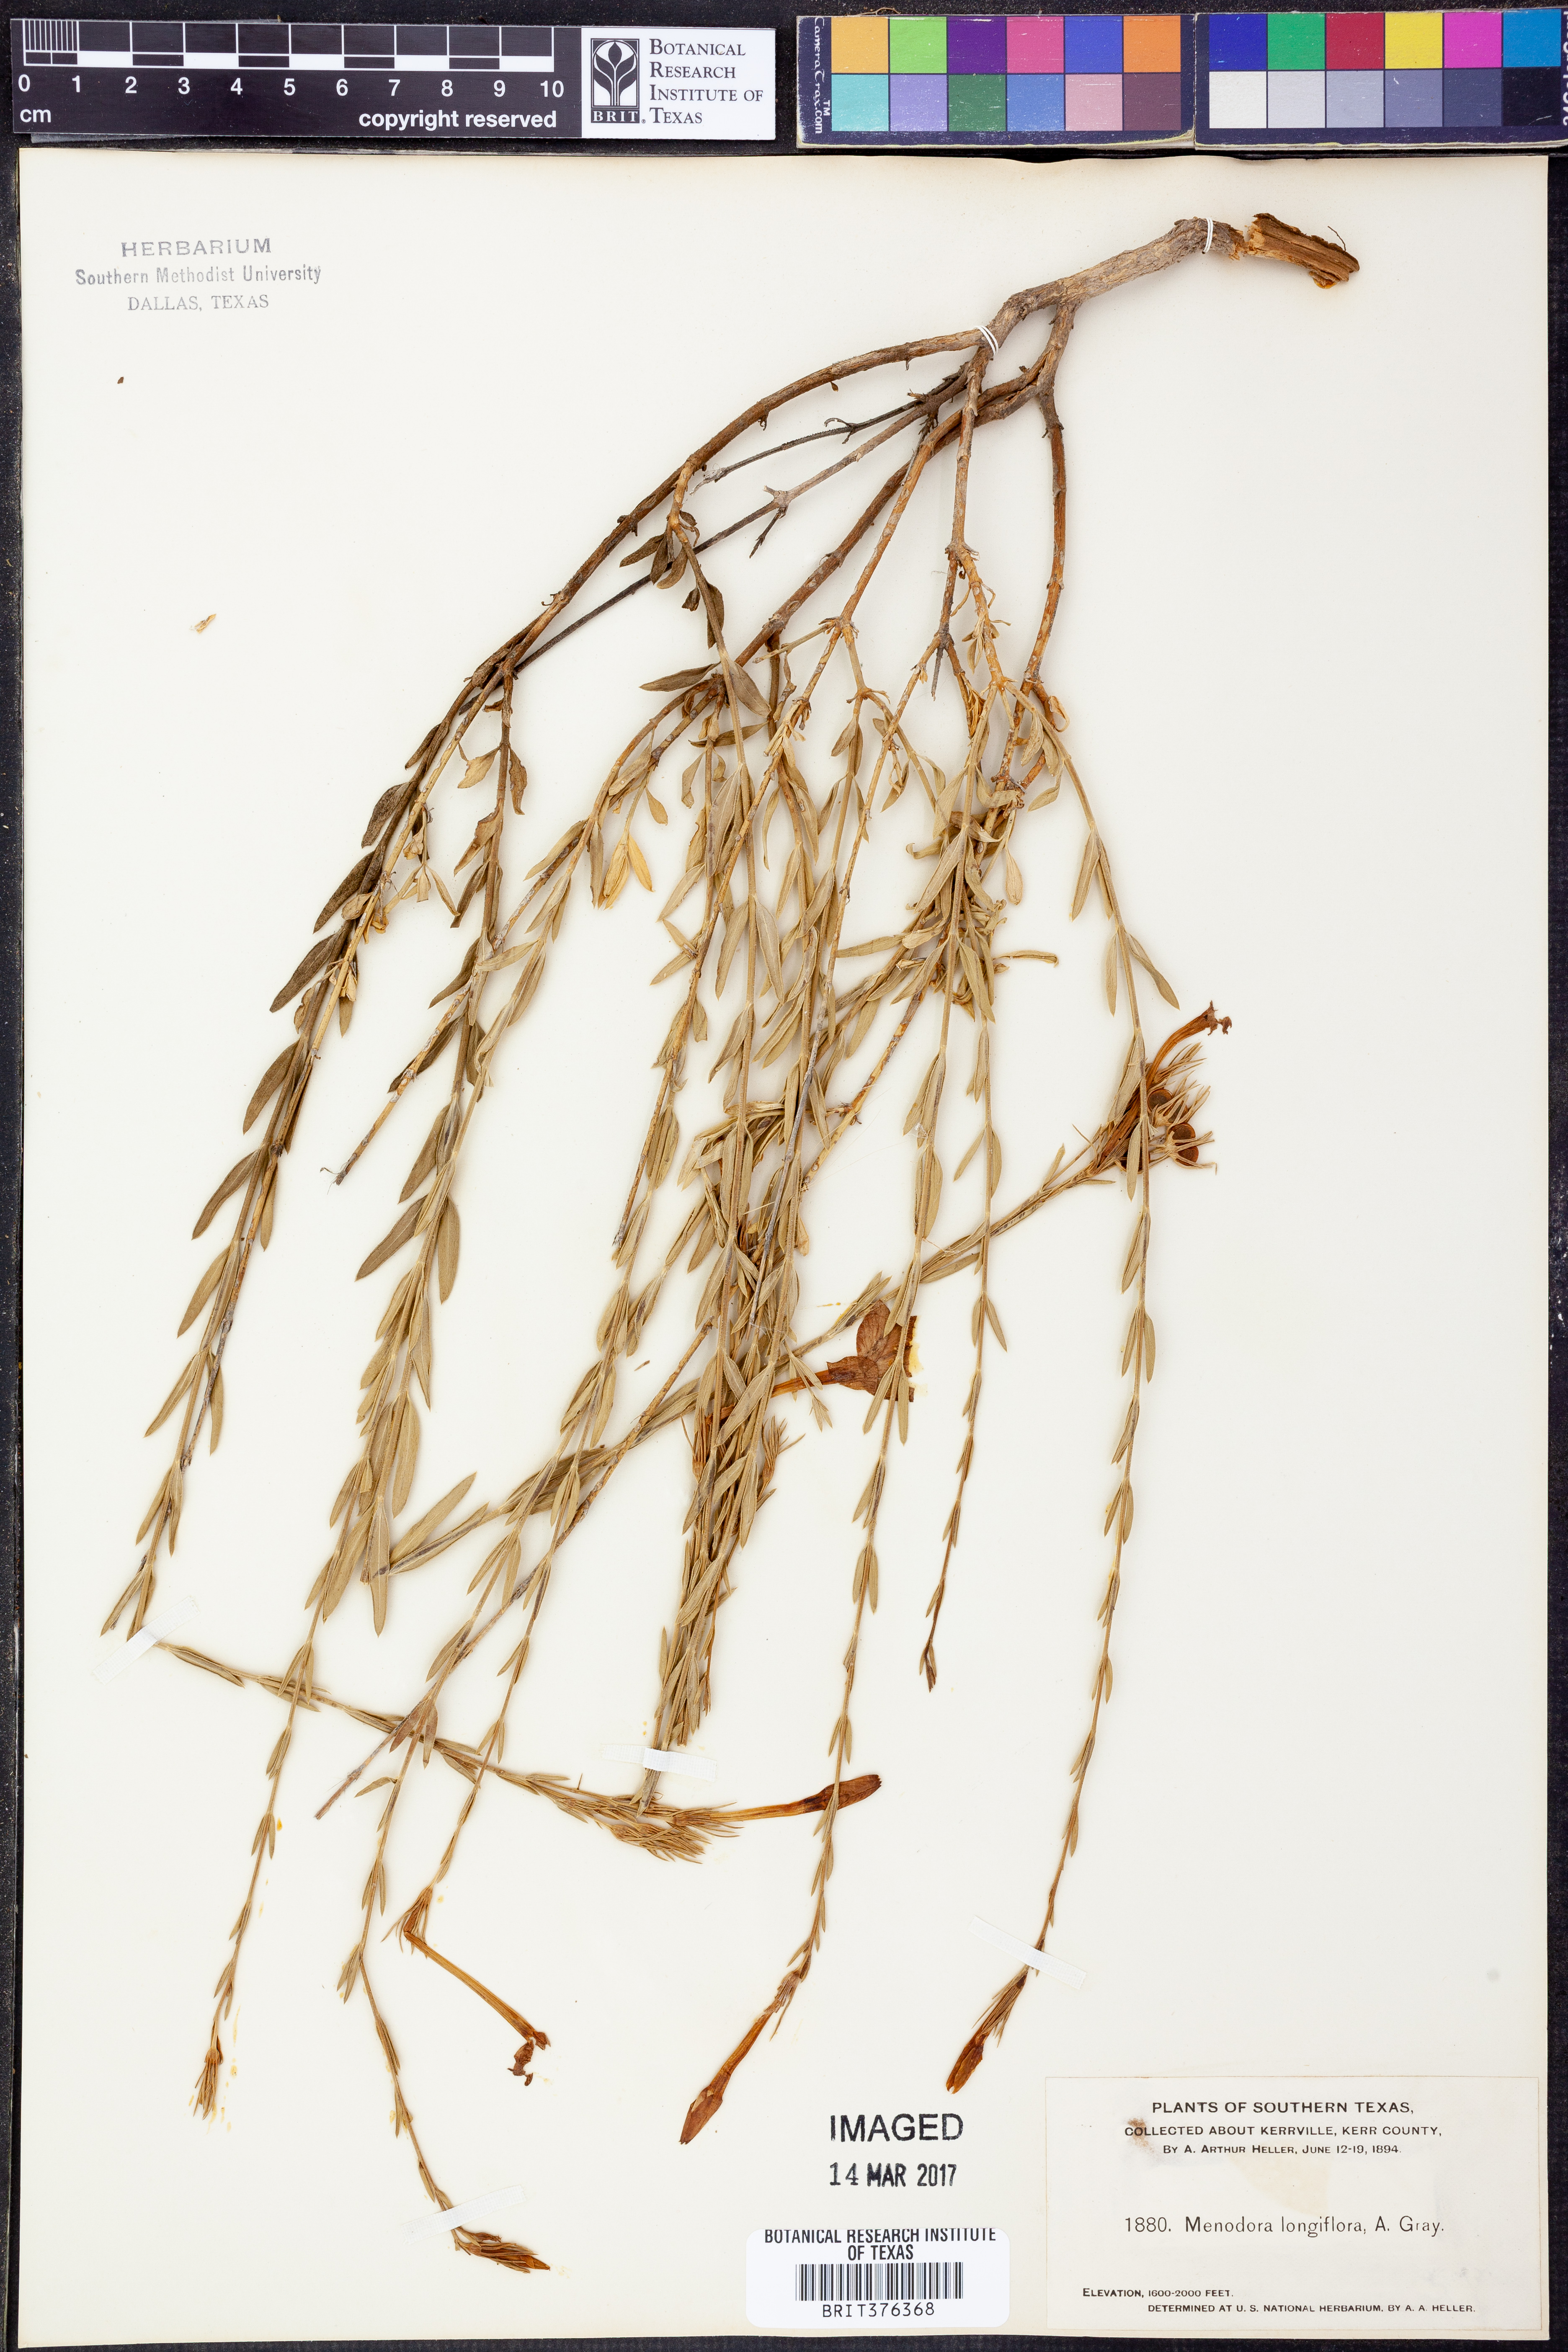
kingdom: Plantae
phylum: Tracheophyta
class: Magnoliopsida
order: Lamiales
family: Oleaceae
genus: Menodora
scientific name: Menodora longiflora
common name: Showy menodora
